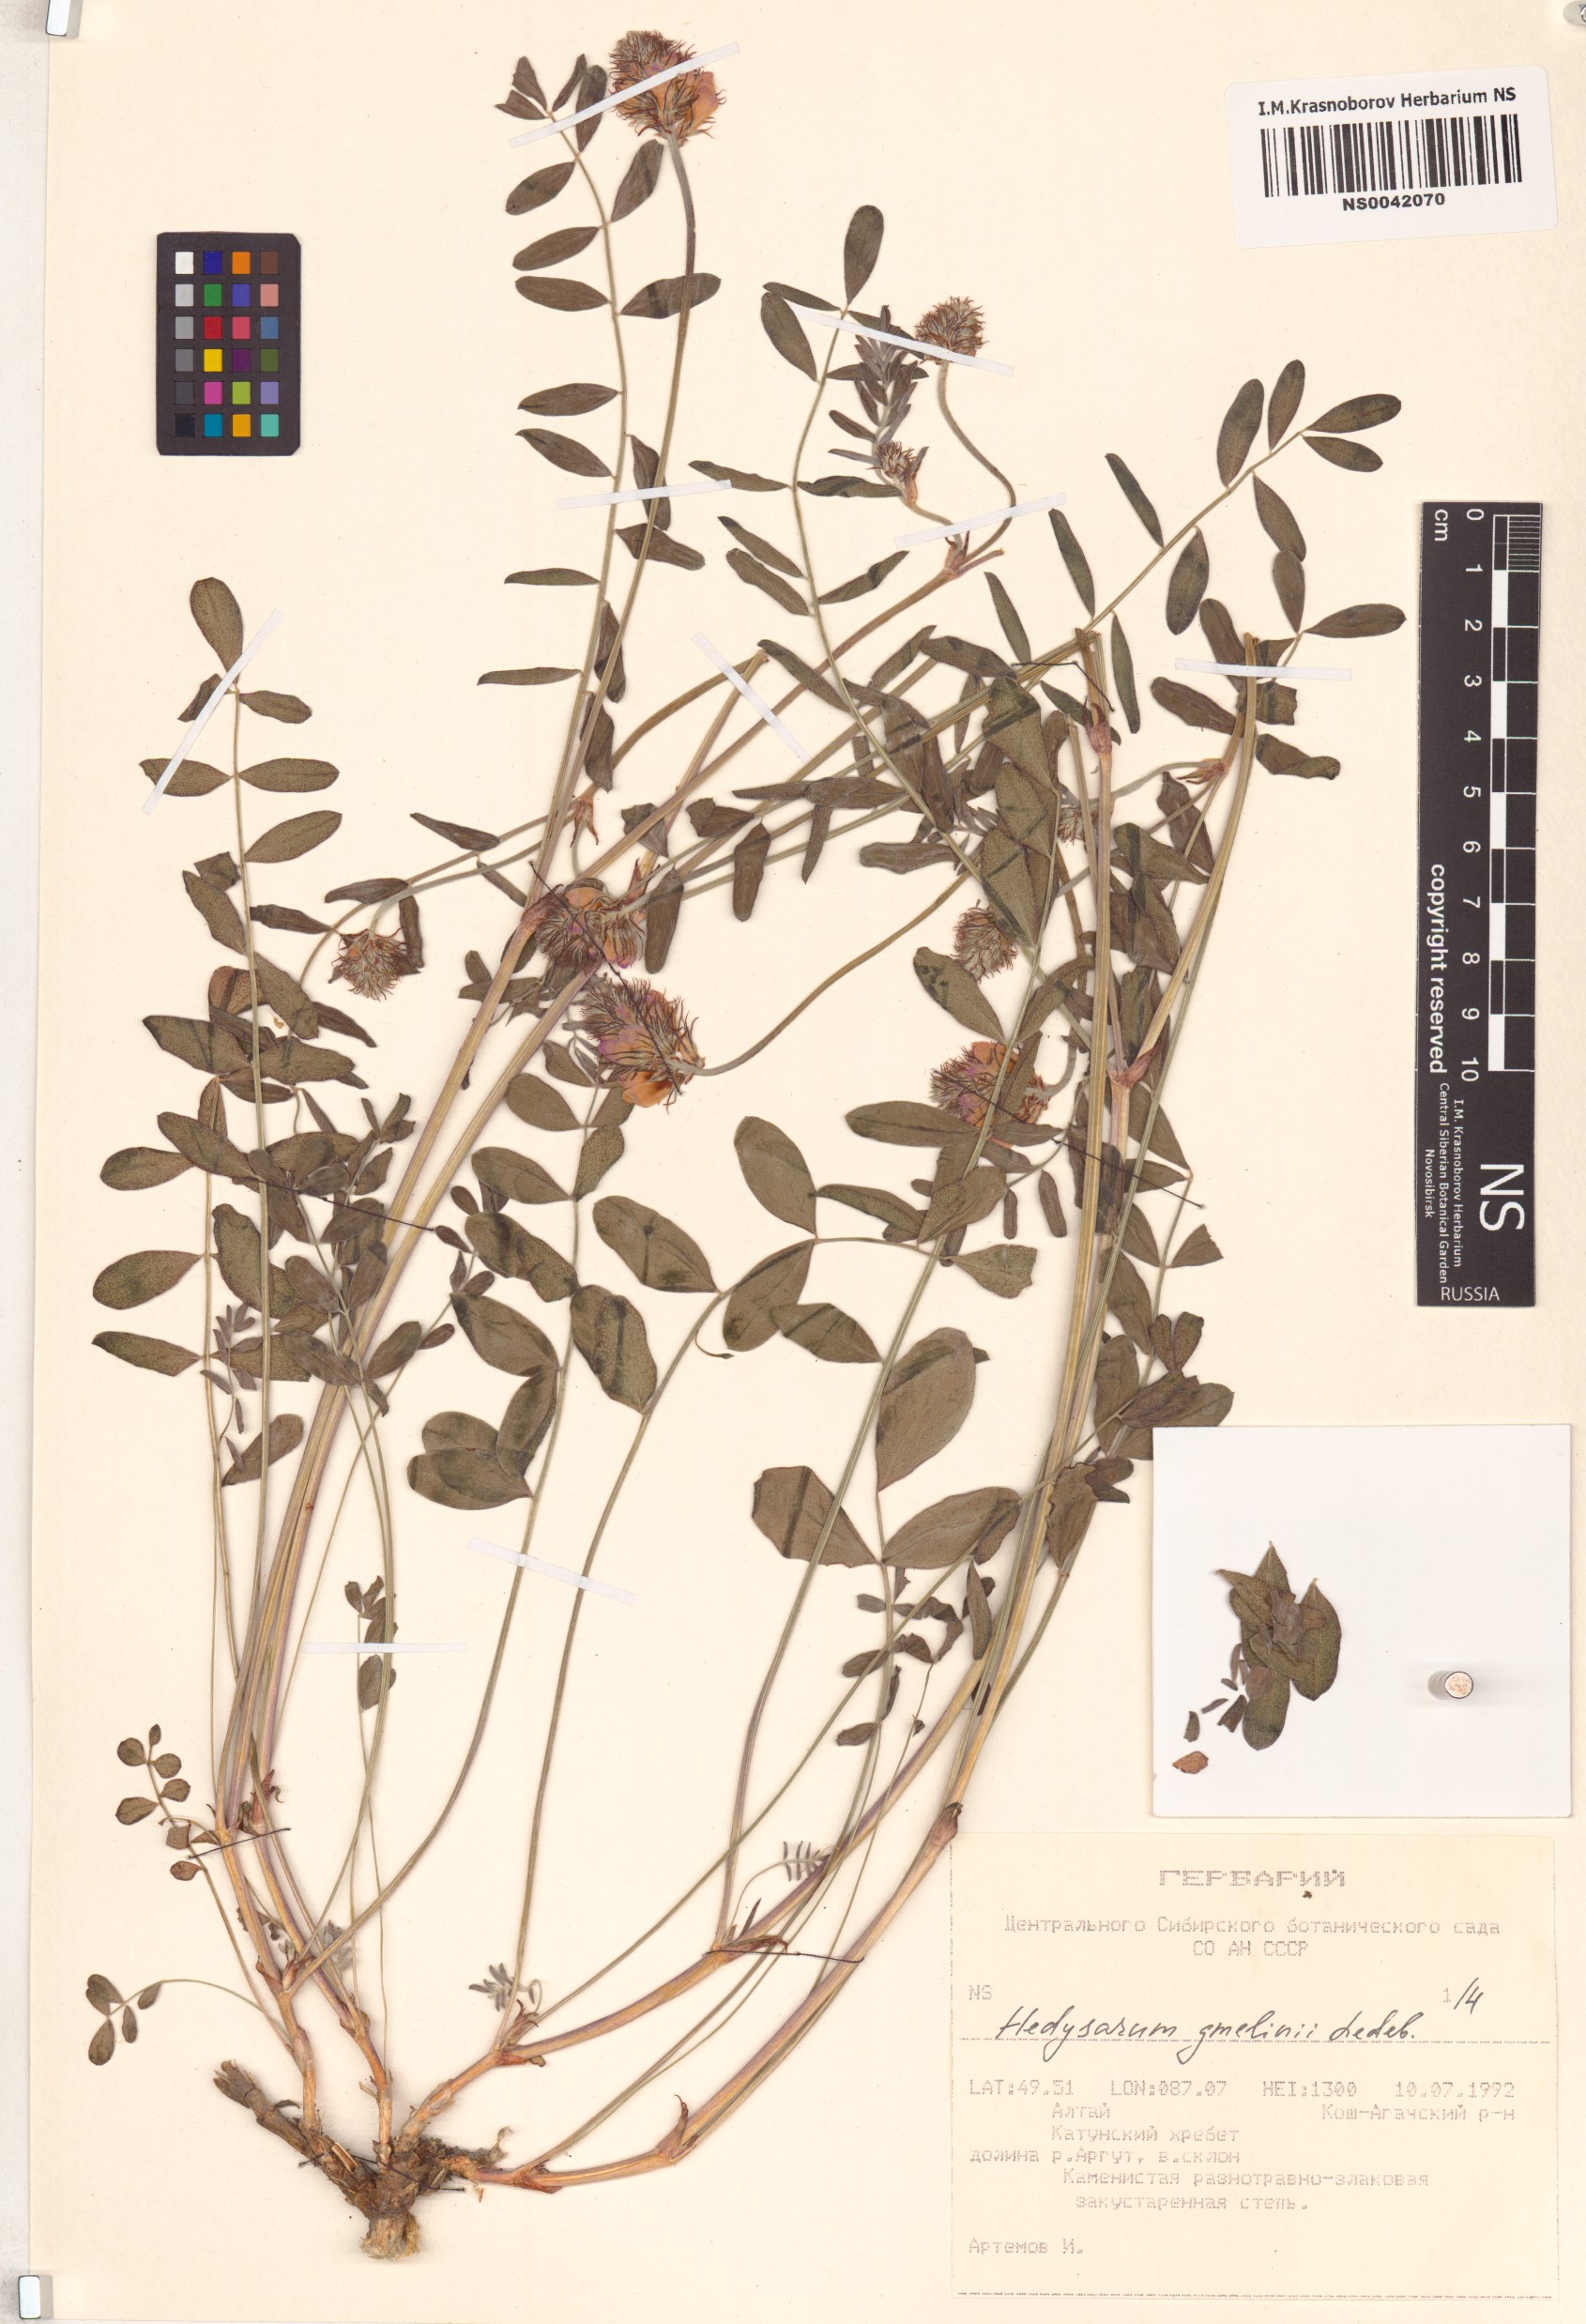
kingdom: Plantae
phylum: Tracheophyta
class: Magnoliopsida
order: Fabales
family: Fabaceae
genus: Hedysarum
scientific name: Hedysarum gmelinii
